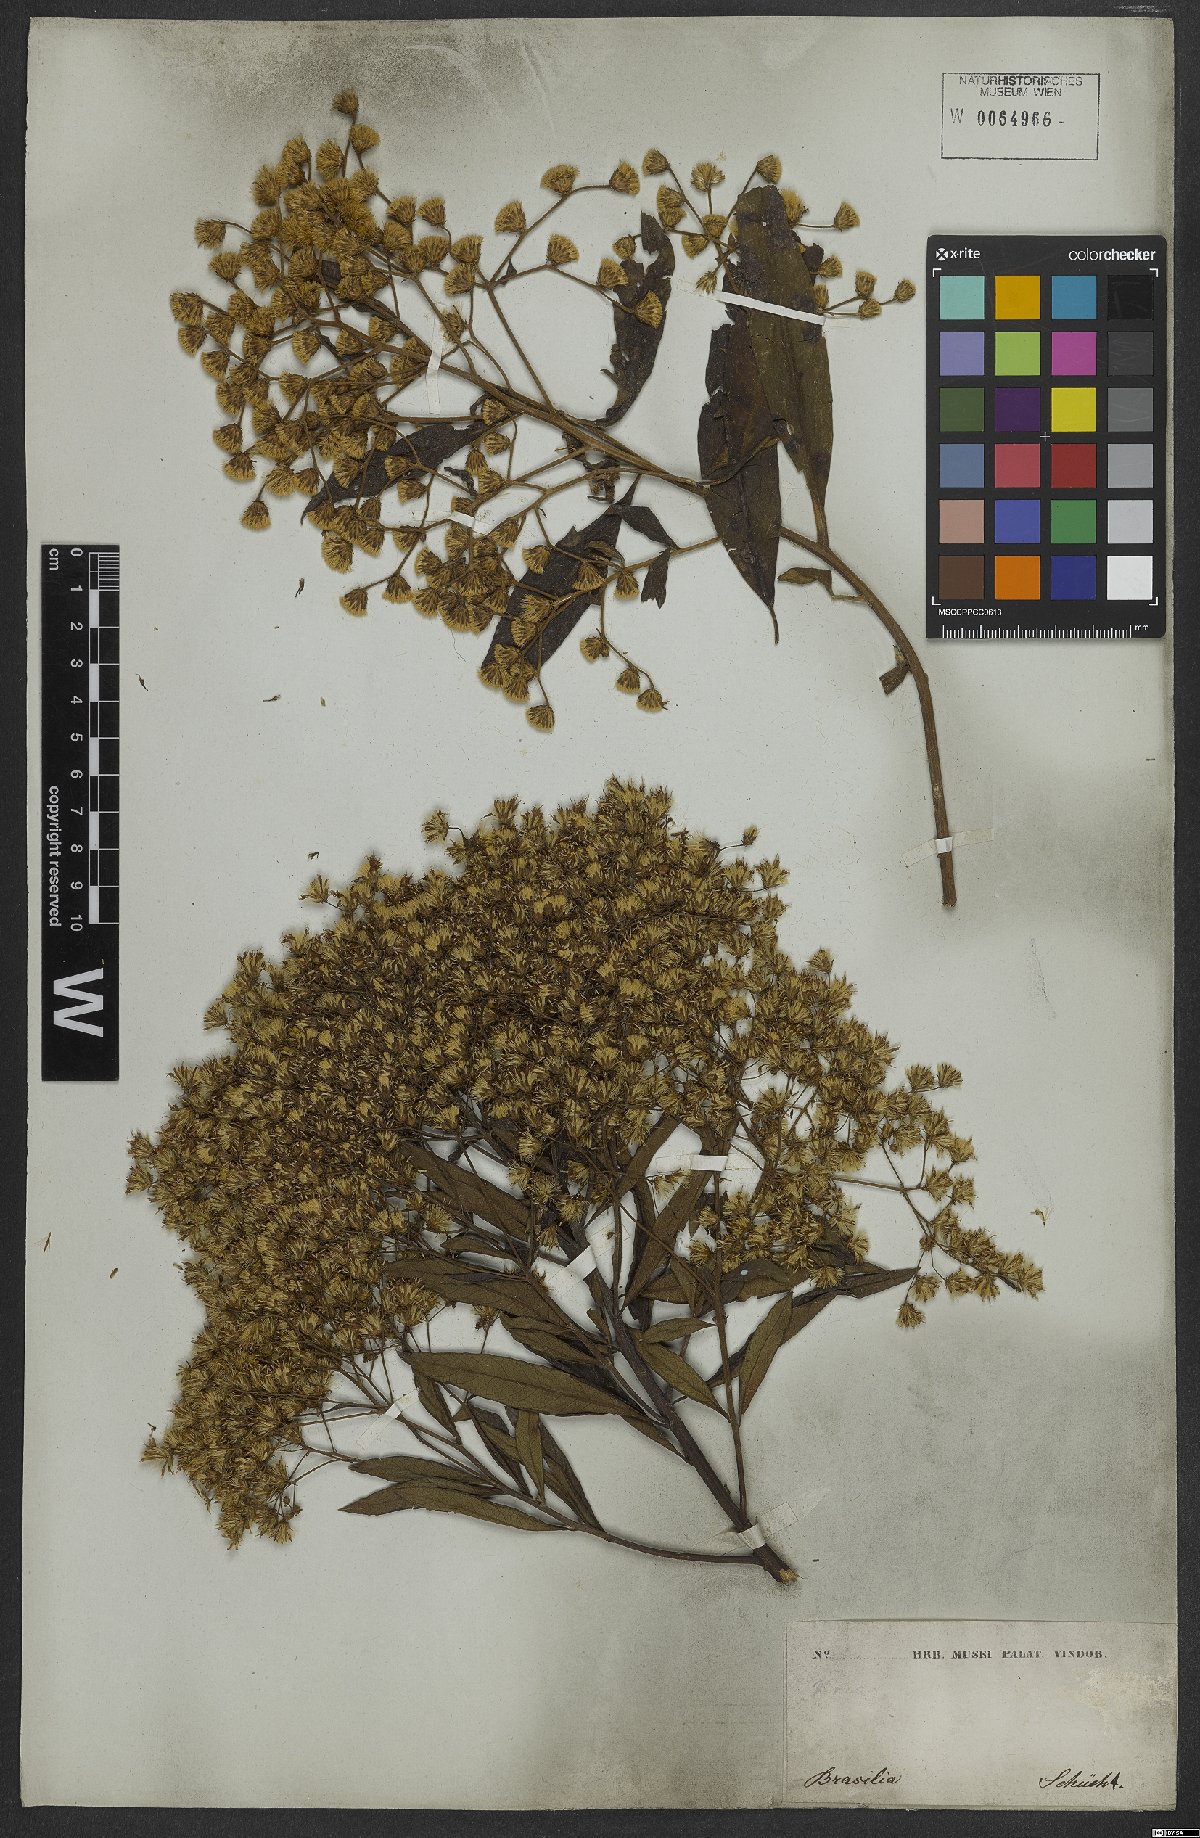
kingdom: Plantae
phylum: Tracheophyta
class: Magnoliopsida
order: Asterales
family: Asteraceae
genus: Vernonanthura
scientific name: Vernonanthura membranacea
